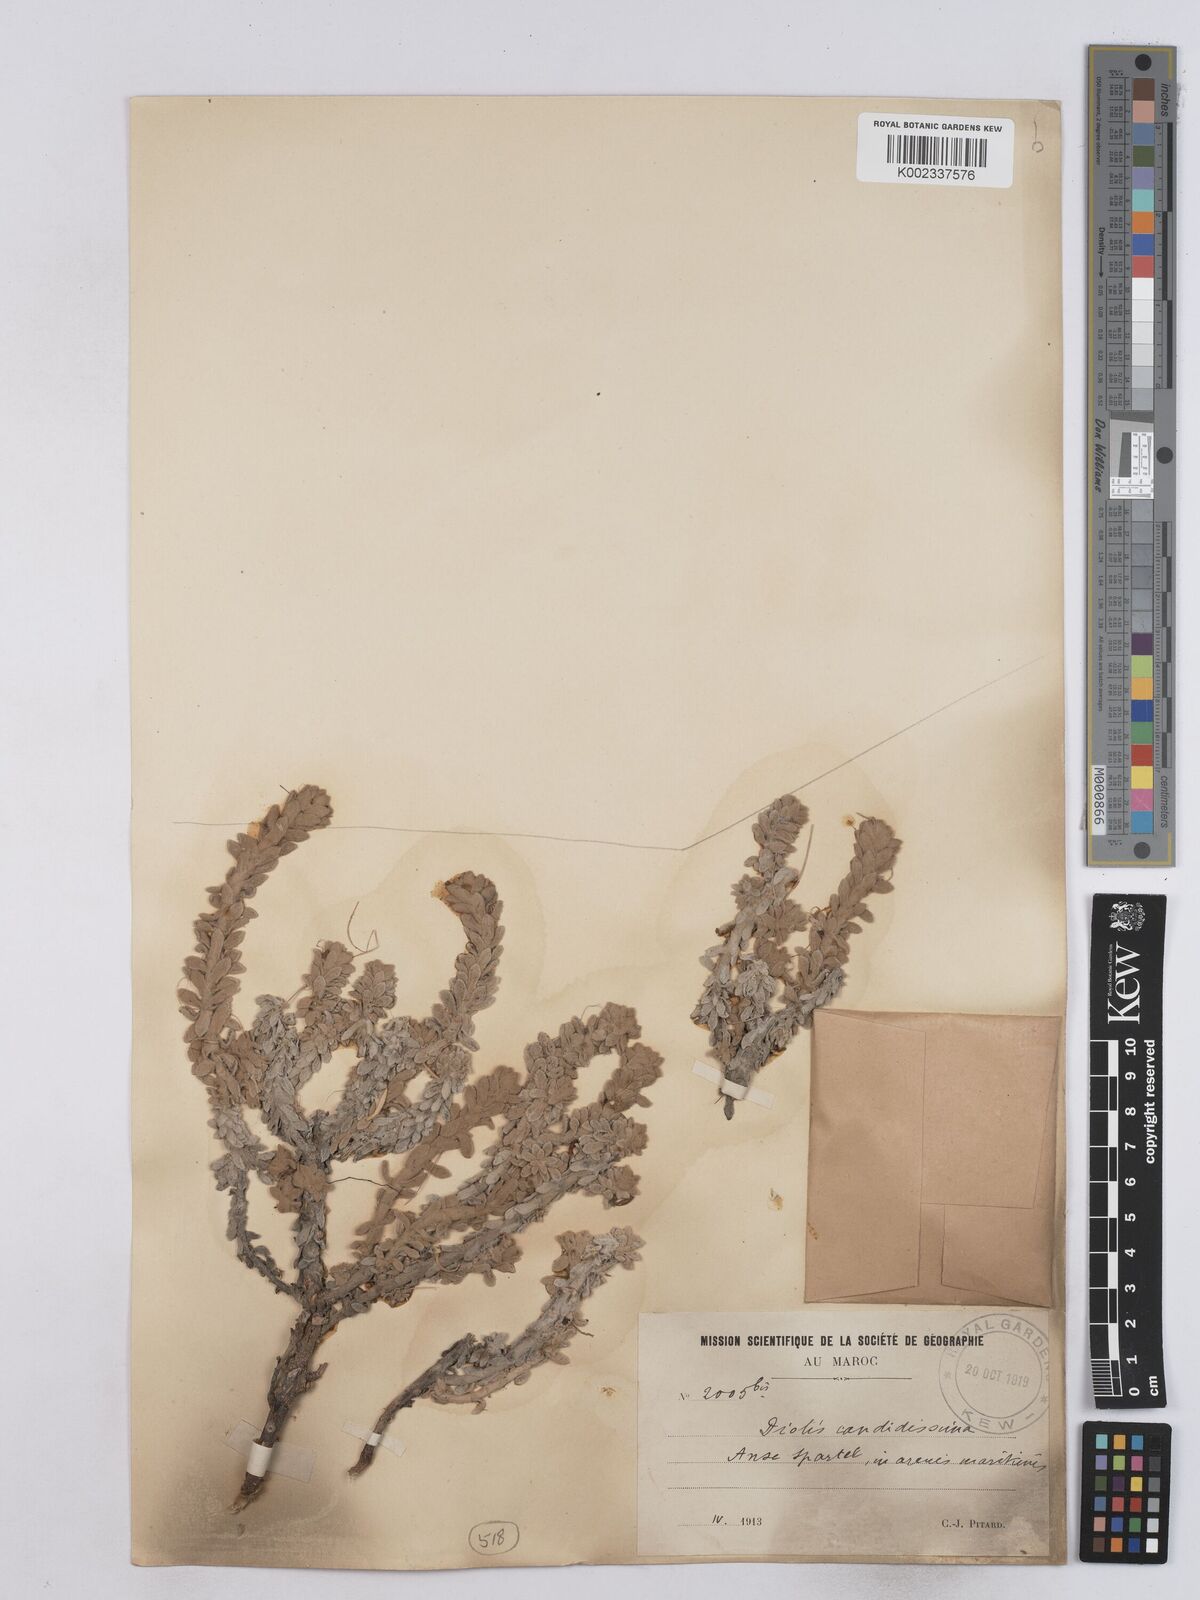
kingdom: Plantae
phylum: Tracheophyta
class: Magnoliopsida
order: Asterales
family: Asteraceae
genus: Achillea
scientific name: Achillea maritima
